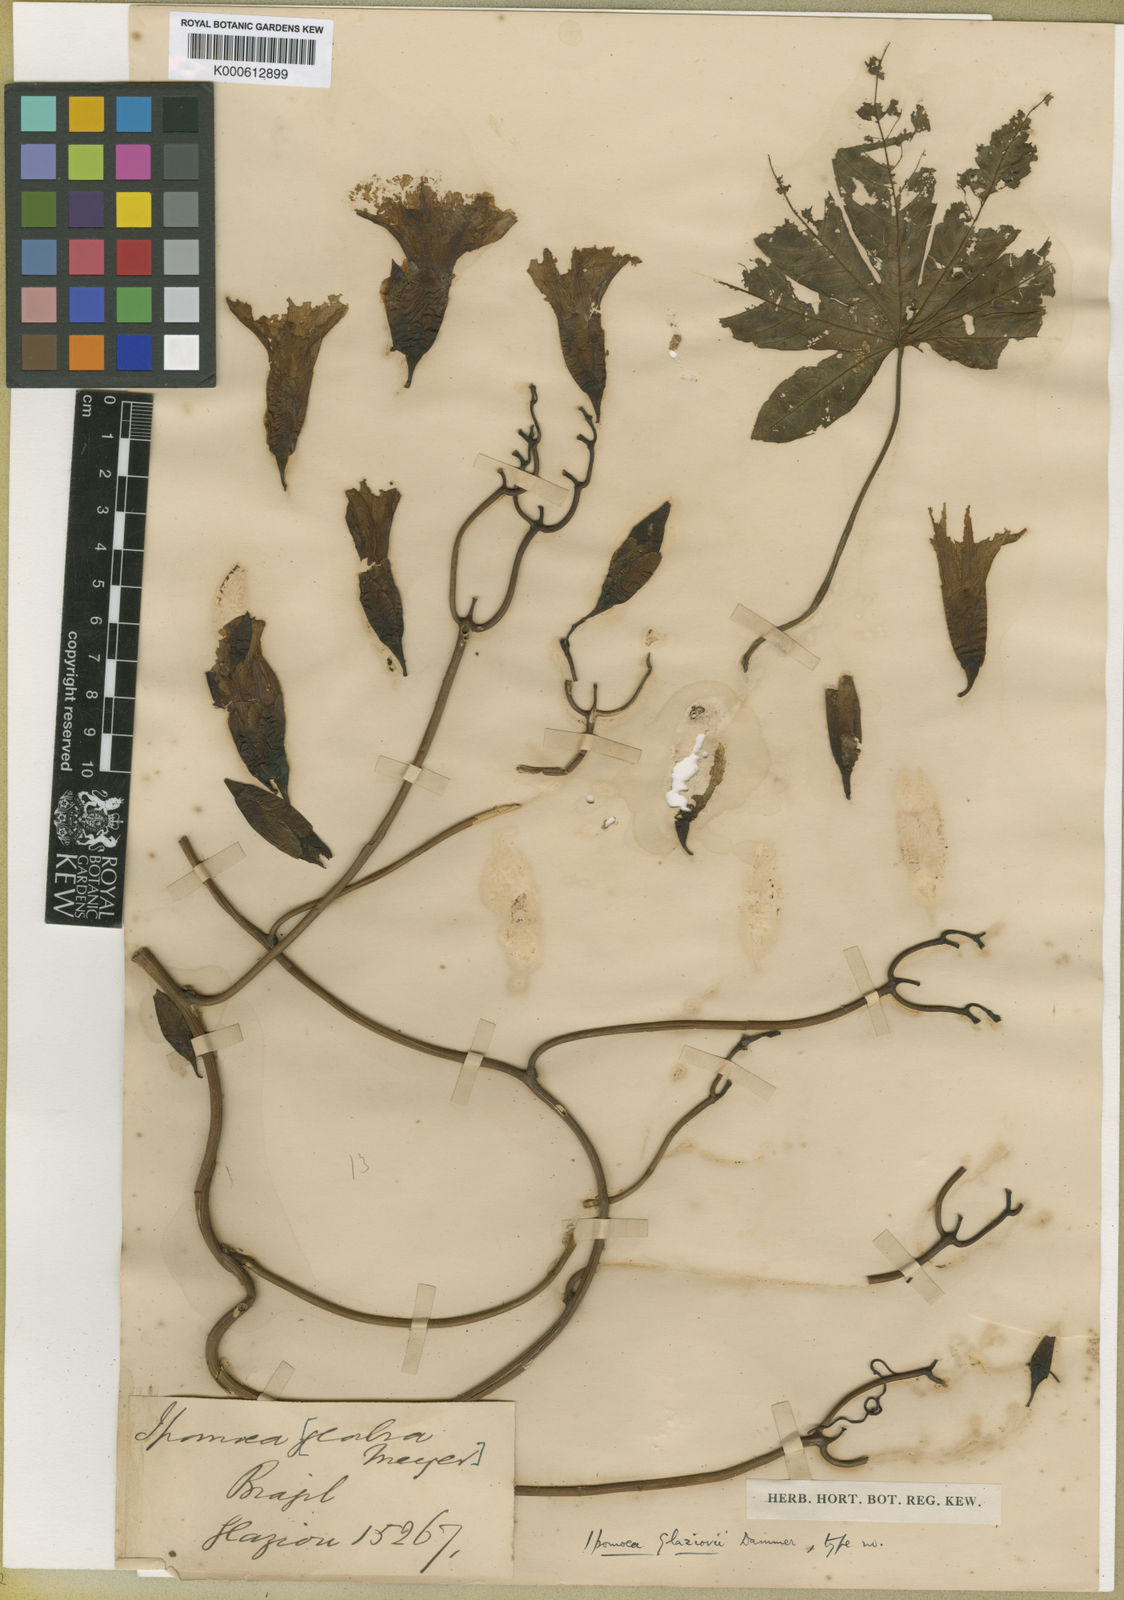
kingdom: Plantae
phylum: Tracheophyta
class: Magnoliopsida
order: Solanales
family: Convolvulaceae
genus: Distimake
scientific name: Distimake tuberosus
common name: Spanish arborvine
